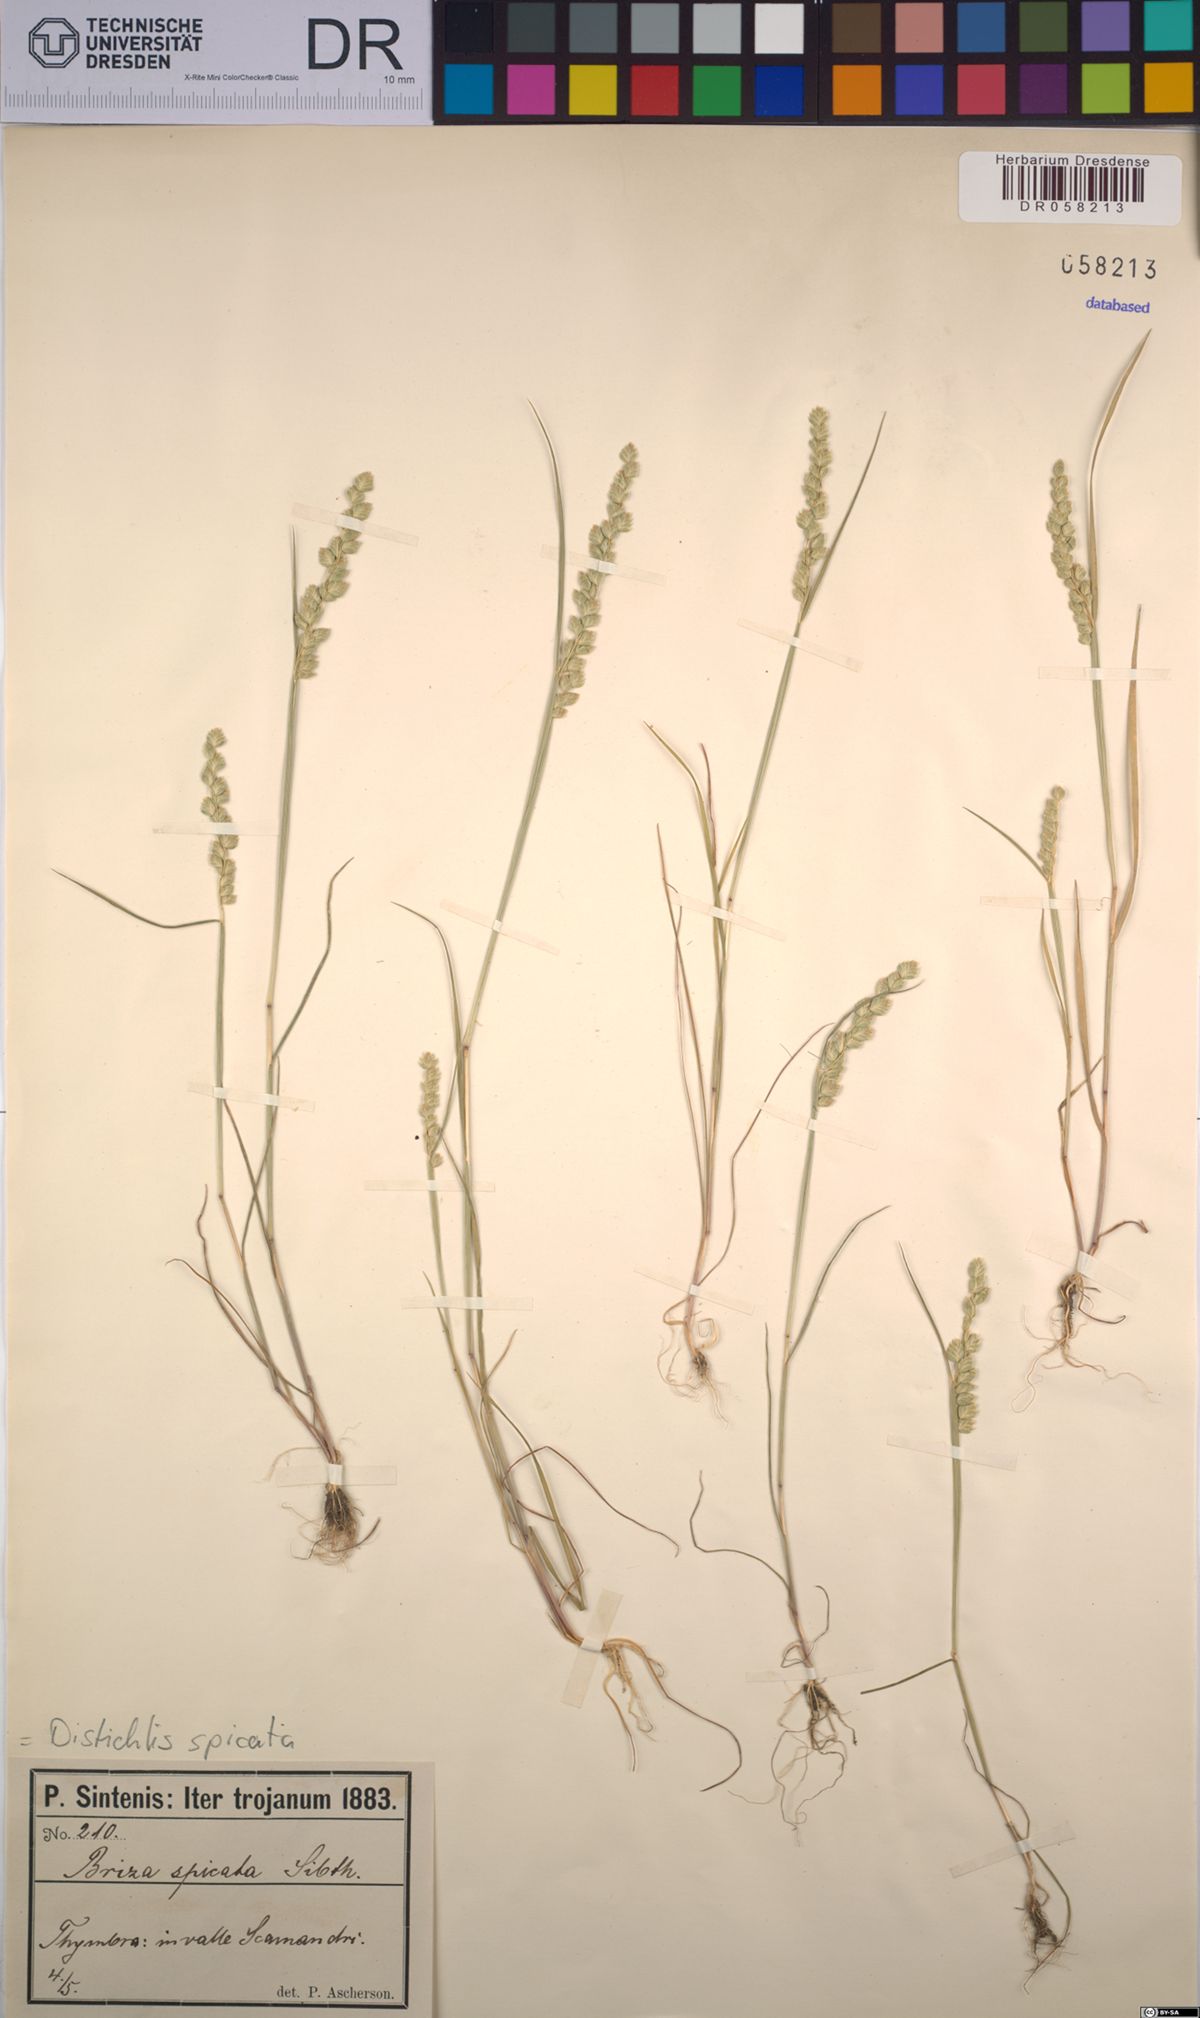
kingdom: Plantae
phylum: Tracheophyta
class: Liliopsida
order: Poales
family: Poaceae
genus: Distichlis
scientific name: Distichlis spicata
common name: Saltgrass
